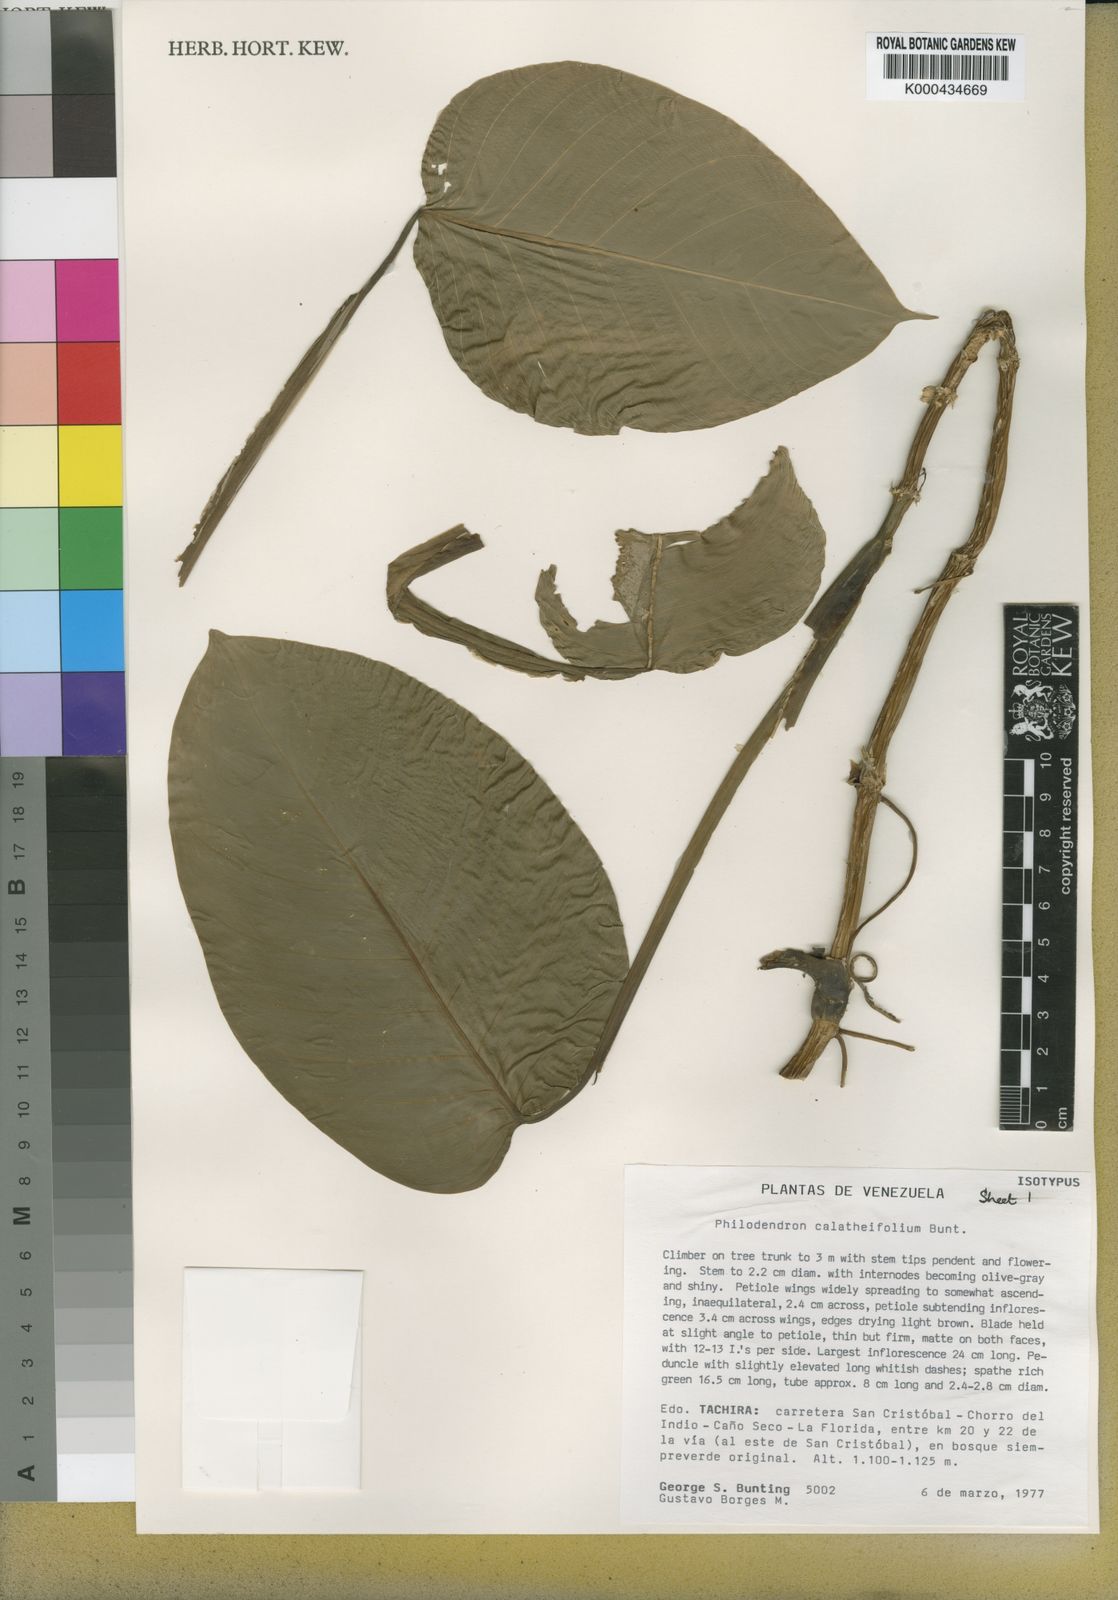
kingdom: Plantae
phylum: Tracheophyta
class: Liliopsida
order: Alismatales
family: Araceae
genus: Philodendron
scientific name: Philodendron calatheifolium
